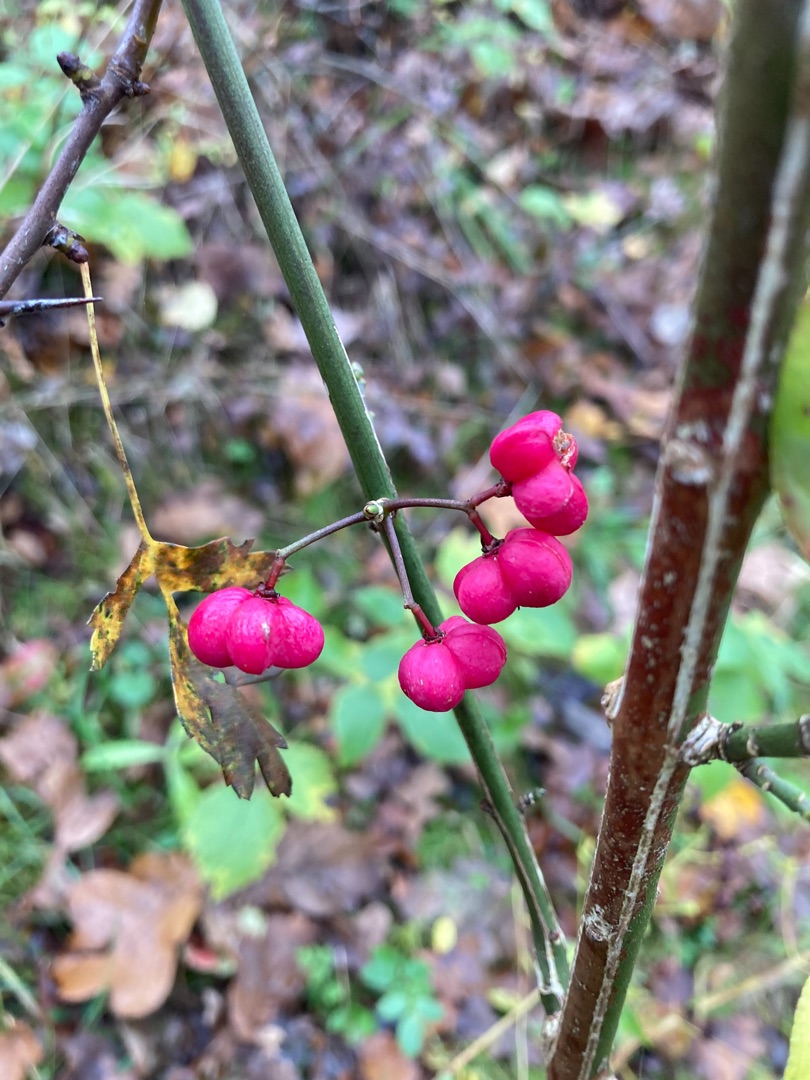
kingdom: Plantae
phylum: Tracheophyta
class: Magnoliopsida
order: Celastrales
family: Celastraceae
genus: Euonymus
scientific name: Euonymus europaeus
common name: Benved
